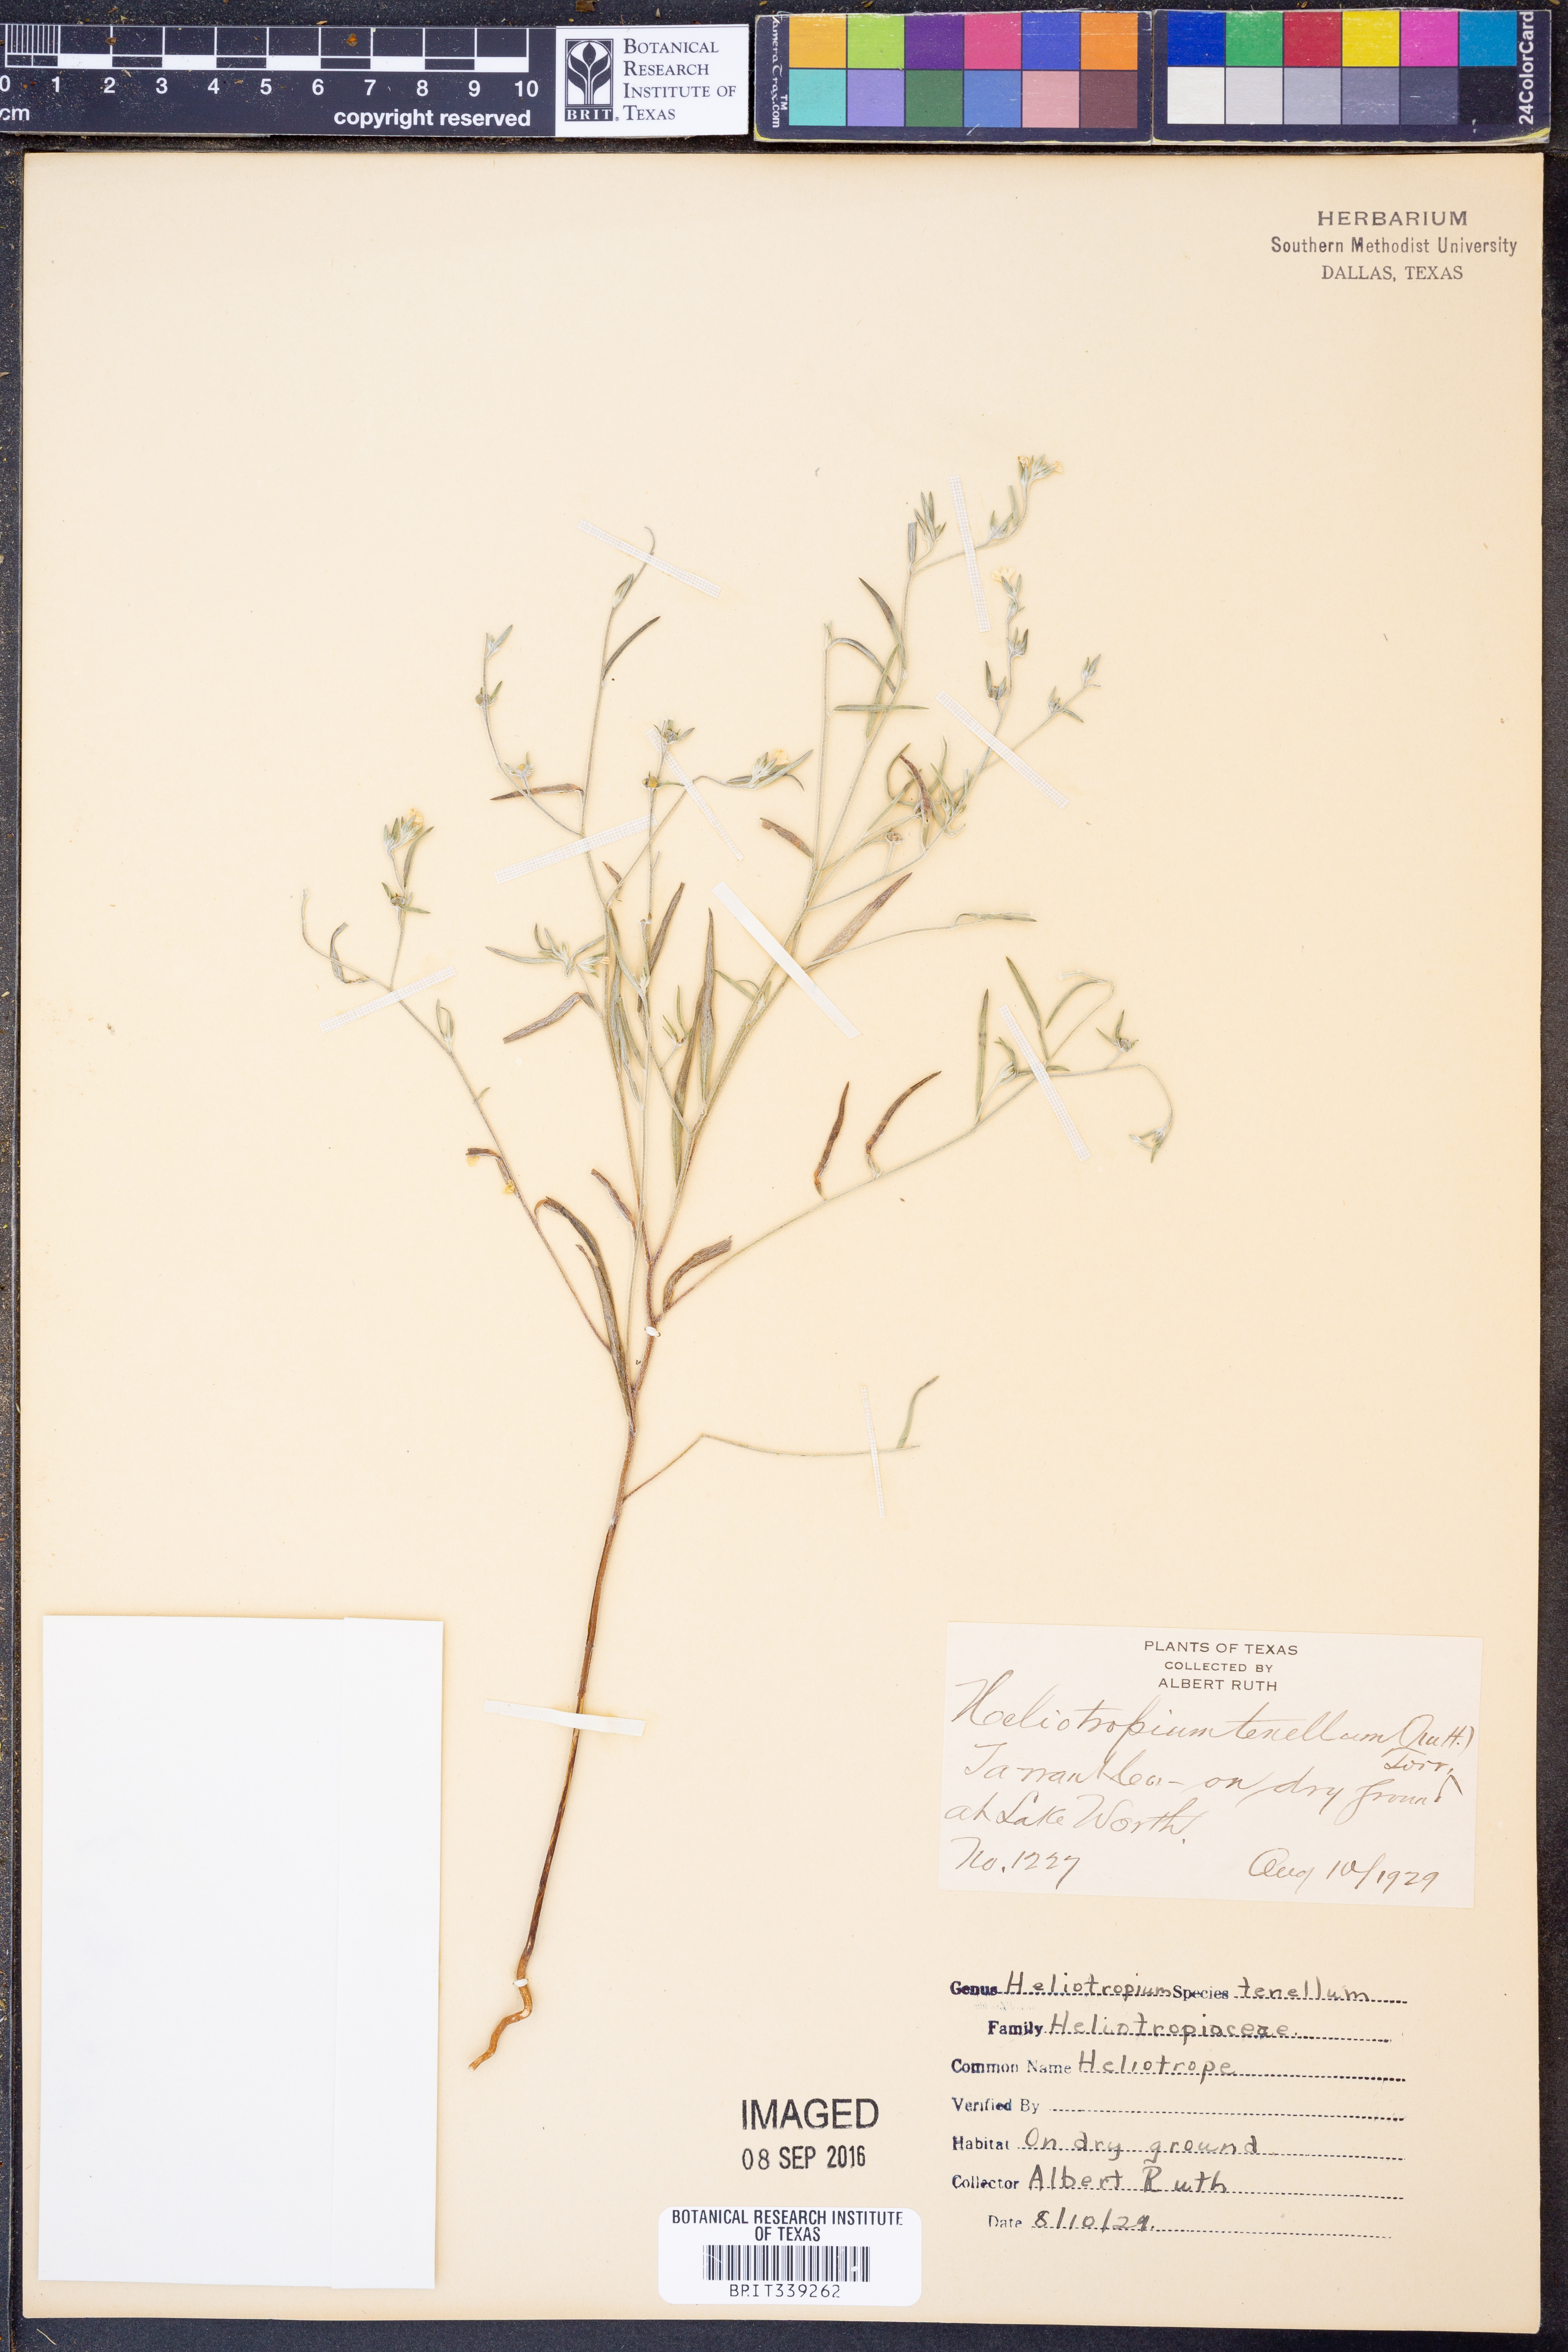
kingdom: Plantae
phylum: Tracheophyta
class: Magnoliopsida
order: Boraginales
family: Heliotropiaceae
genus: Euploca
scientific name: Euploca tenella
